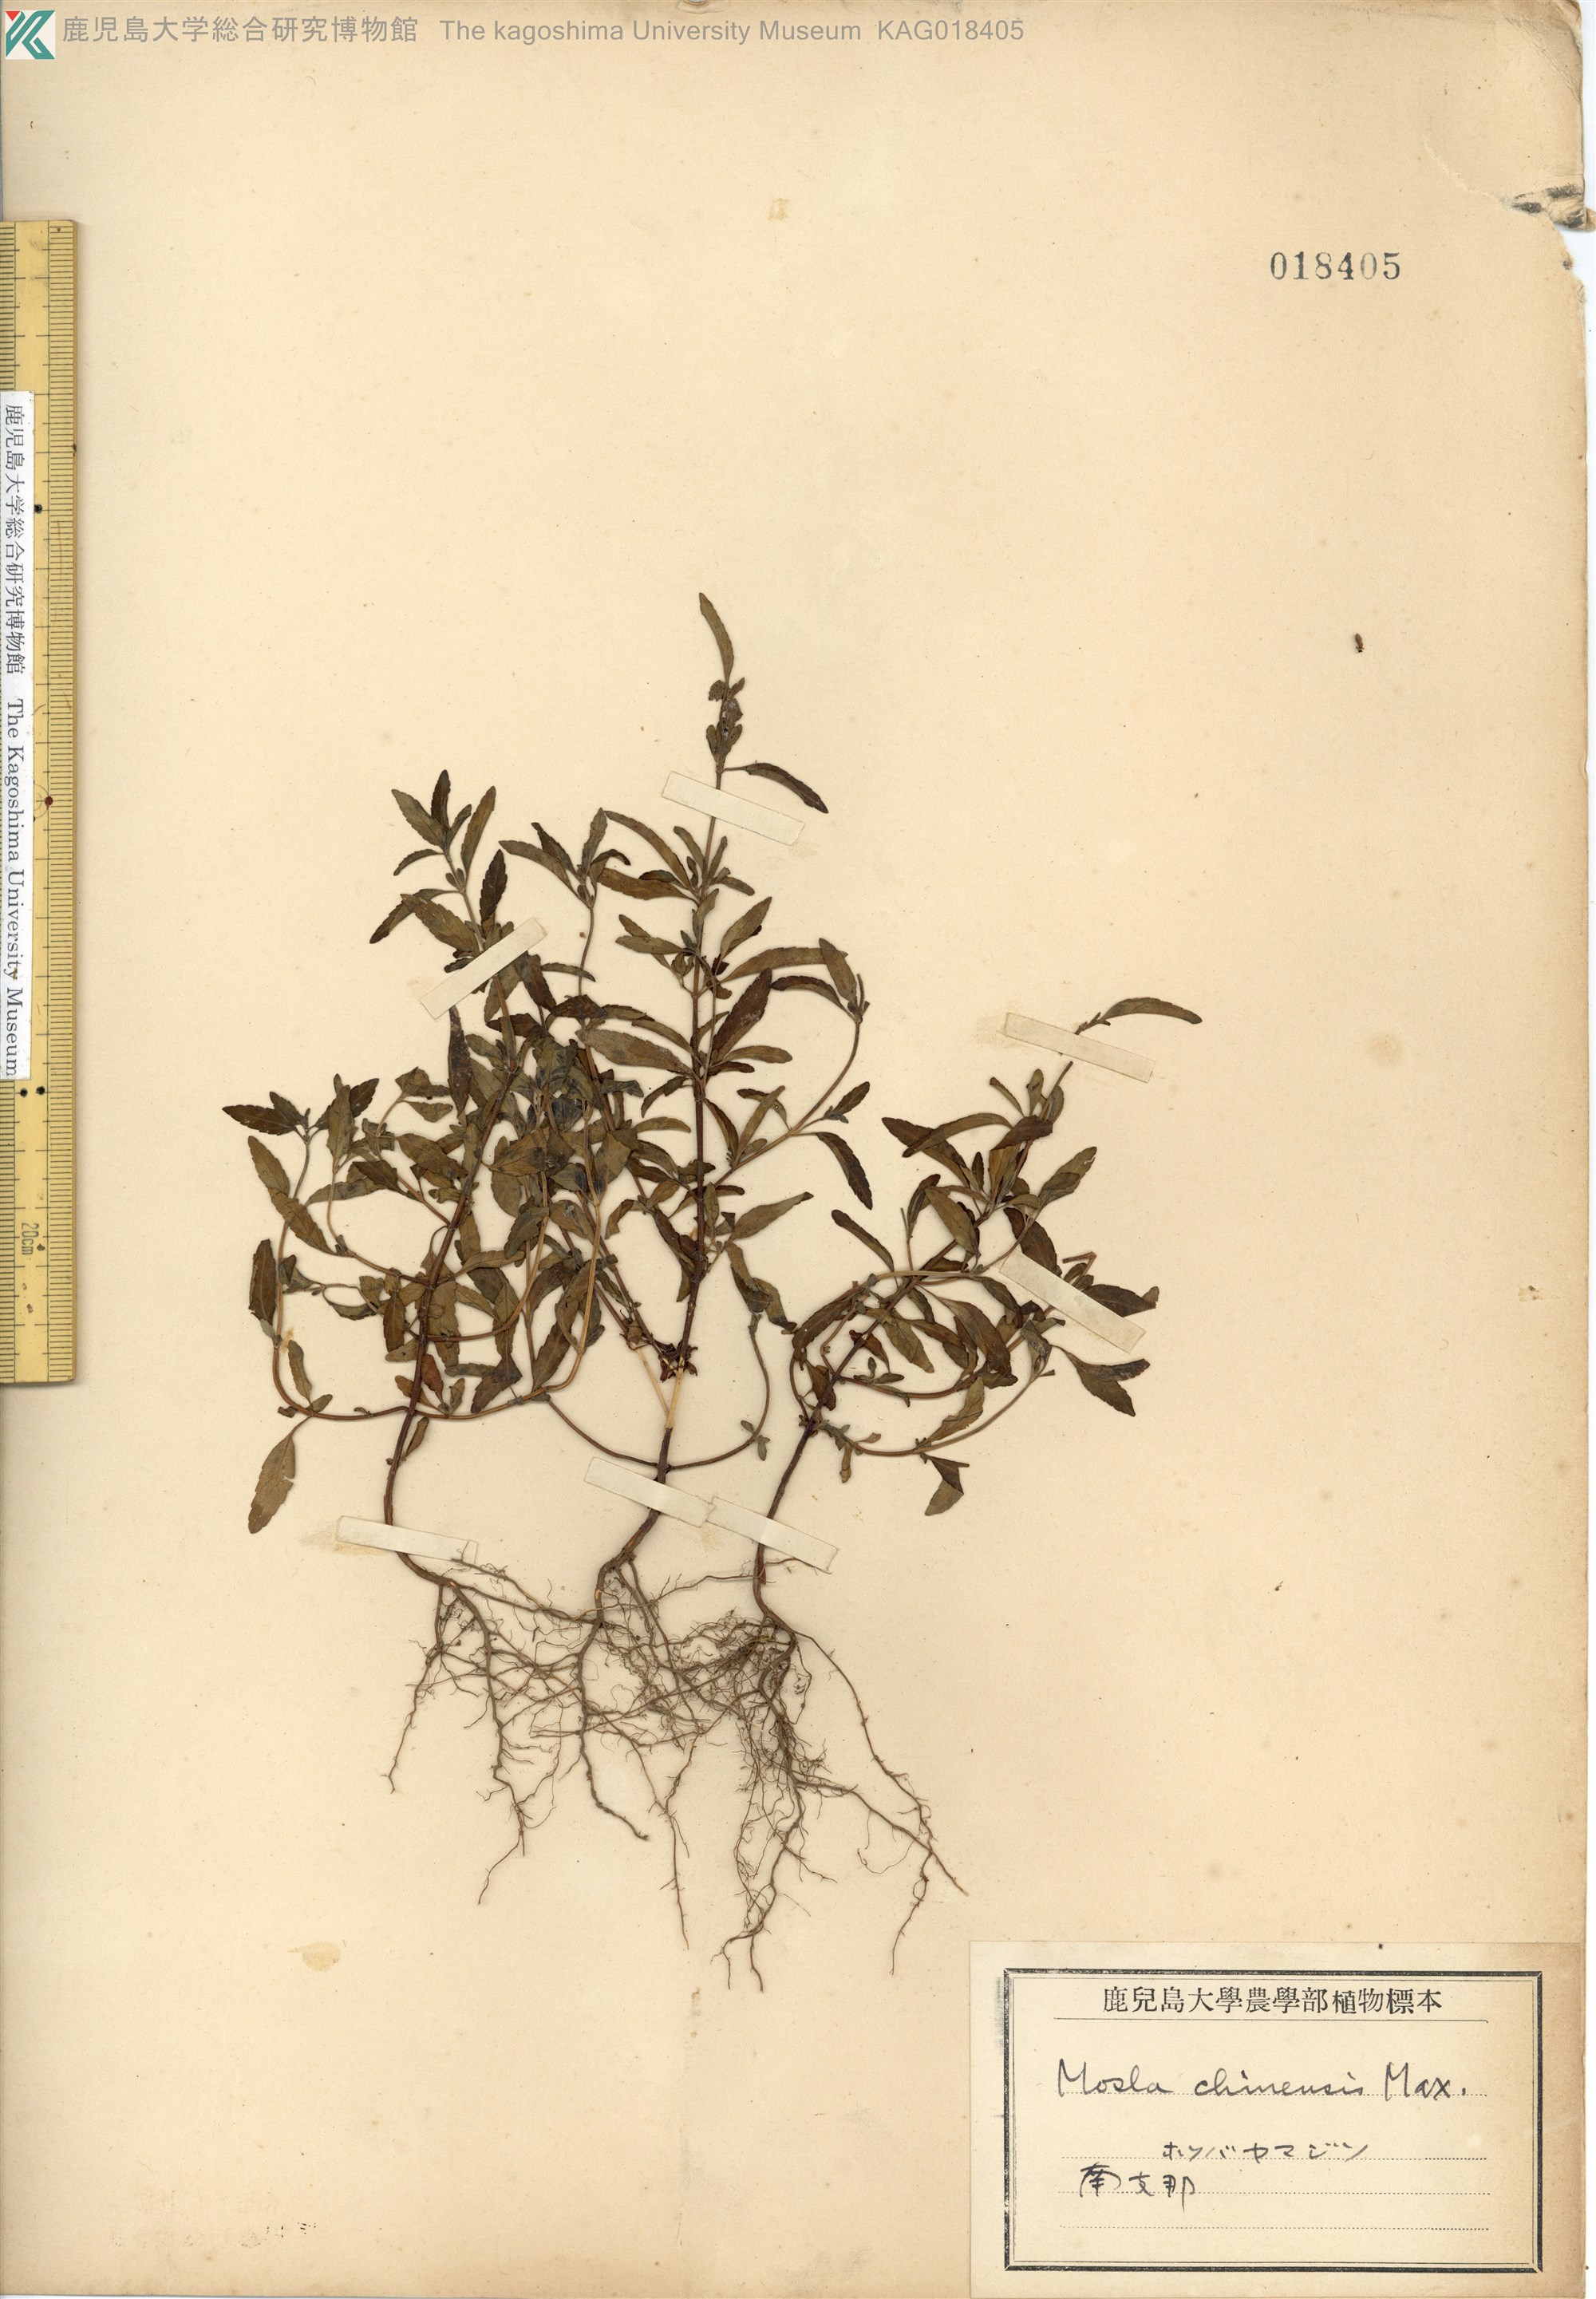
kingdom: Plantae
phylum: Tracheophyta
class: Magnoliopsida
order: Lamiales
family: Lamiaceae
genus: Mosla
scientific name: Mosla chinensis
